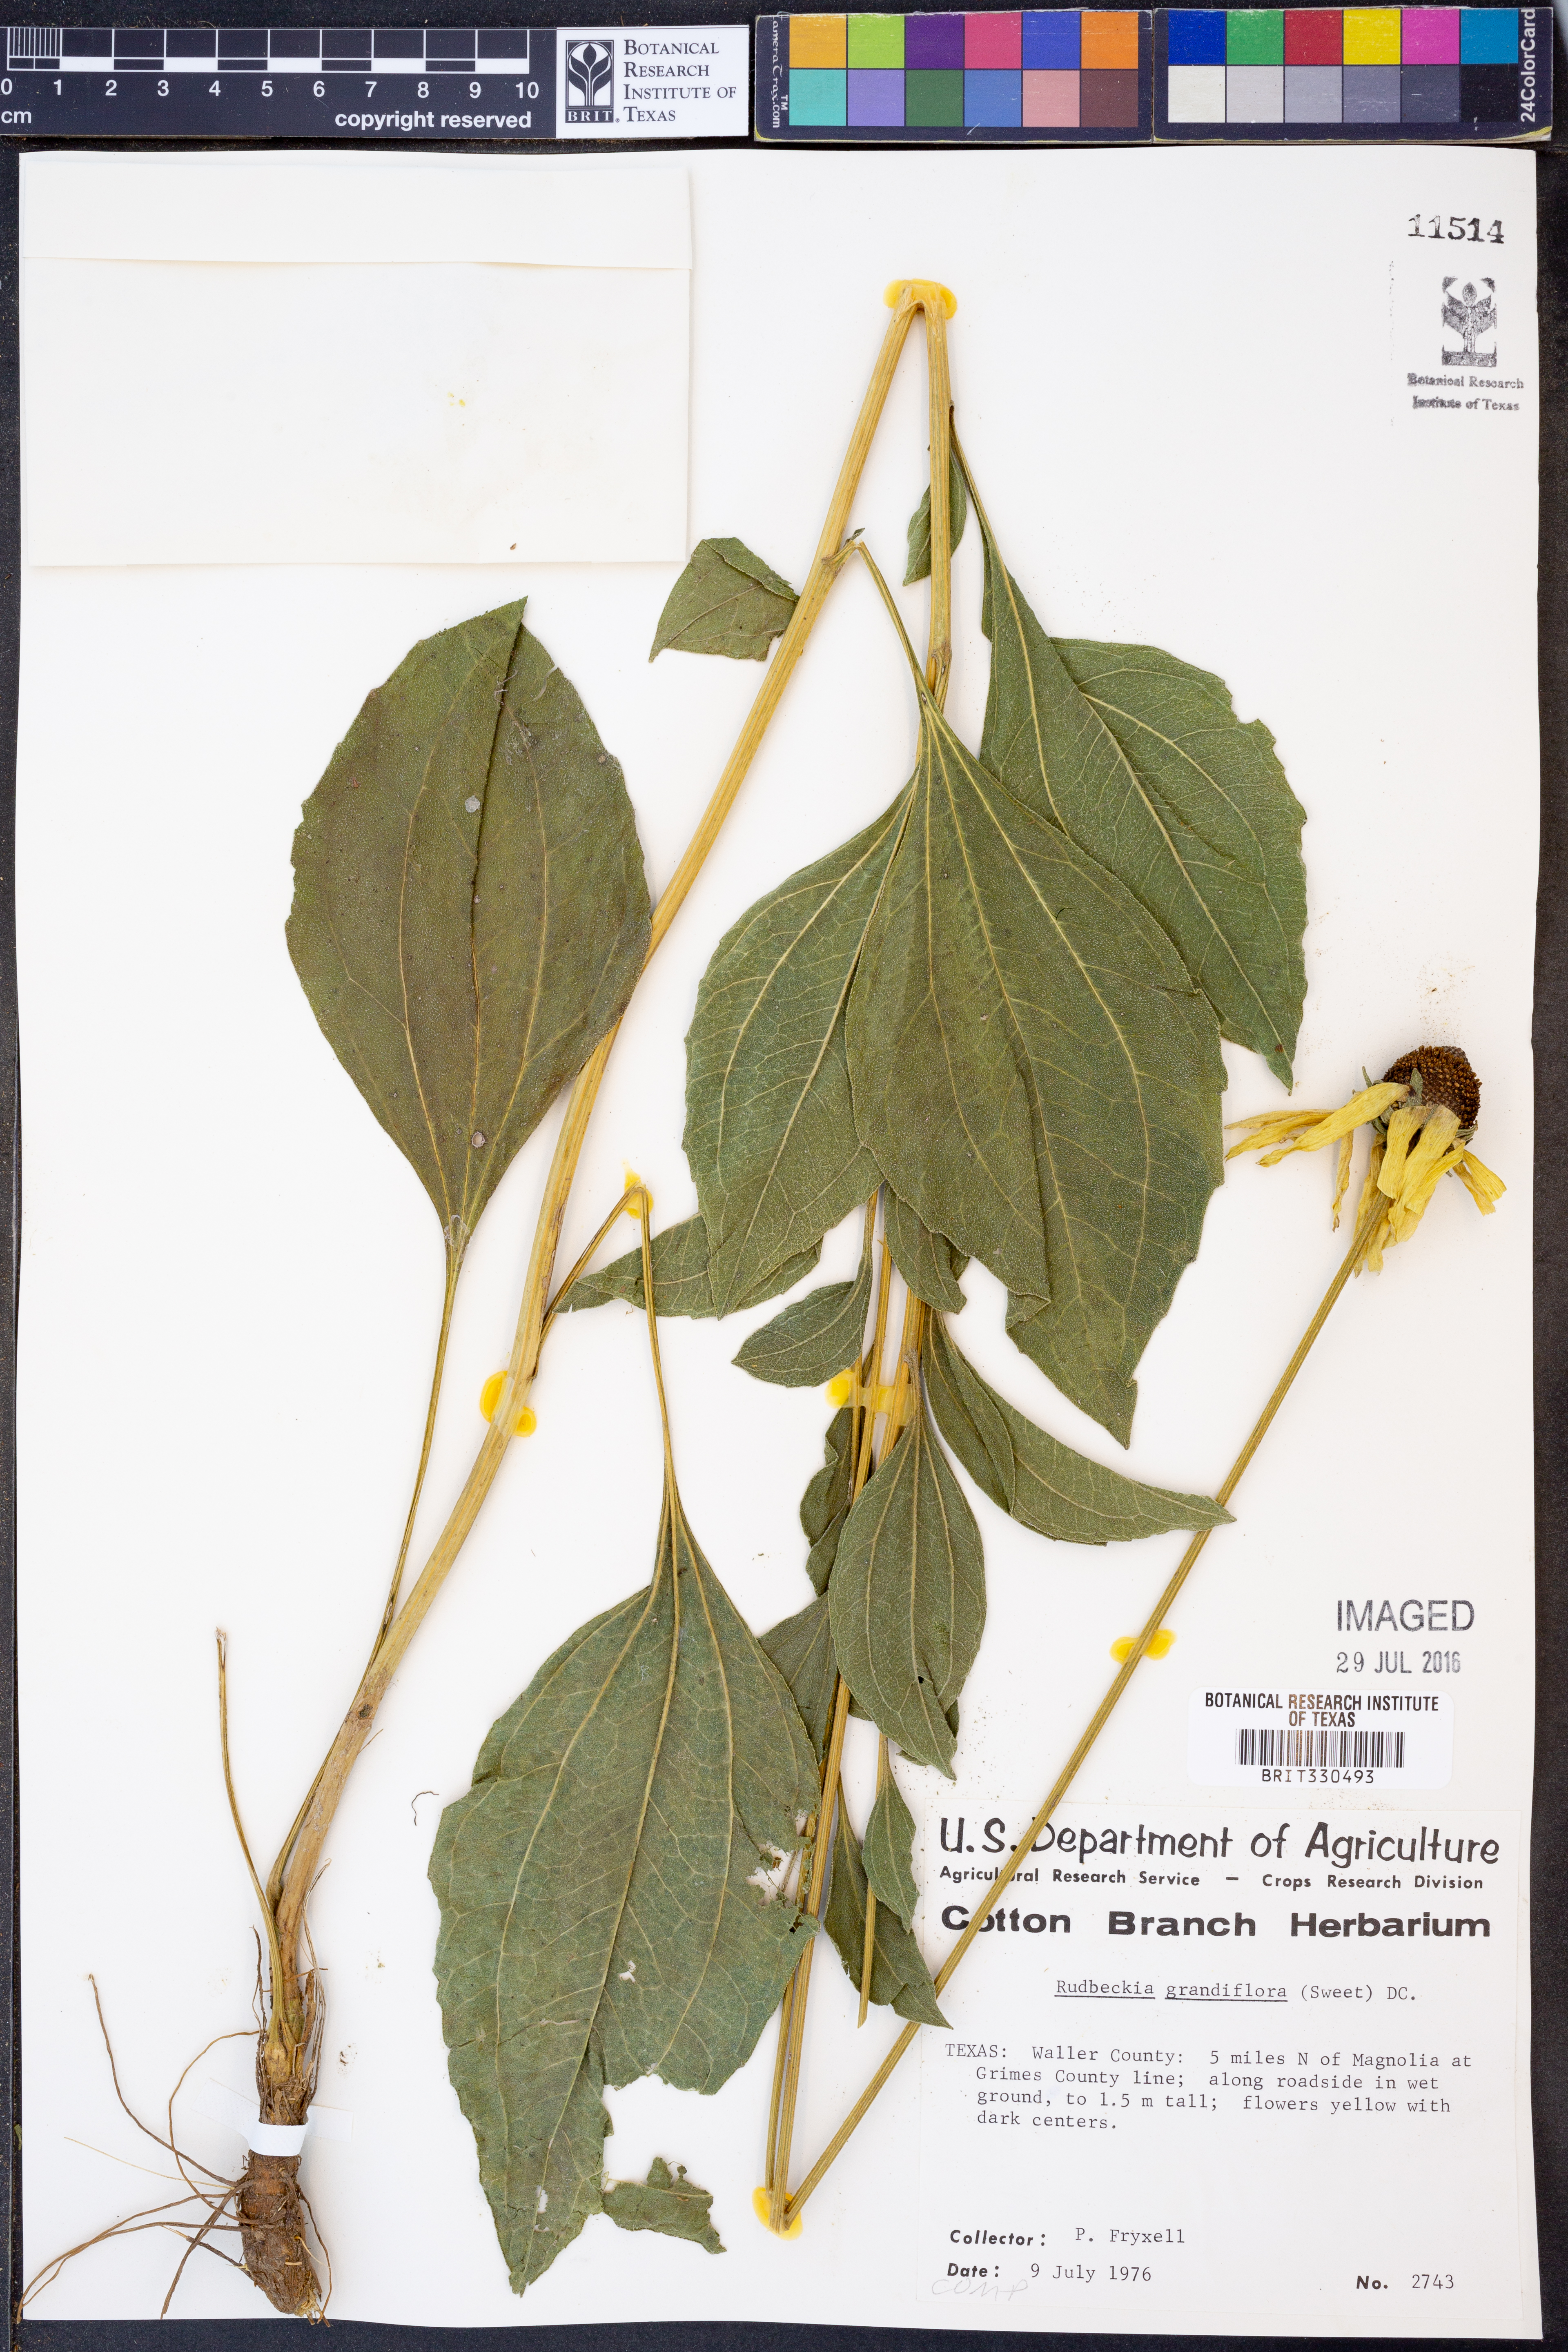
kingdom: Plantae
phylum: Tracheophyta
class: Magnoliopsida
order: Asterales
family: Asteraceae
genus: Rudbeckia
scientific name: Rudbeckia grandiflora
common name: Large-flowered coneflower
